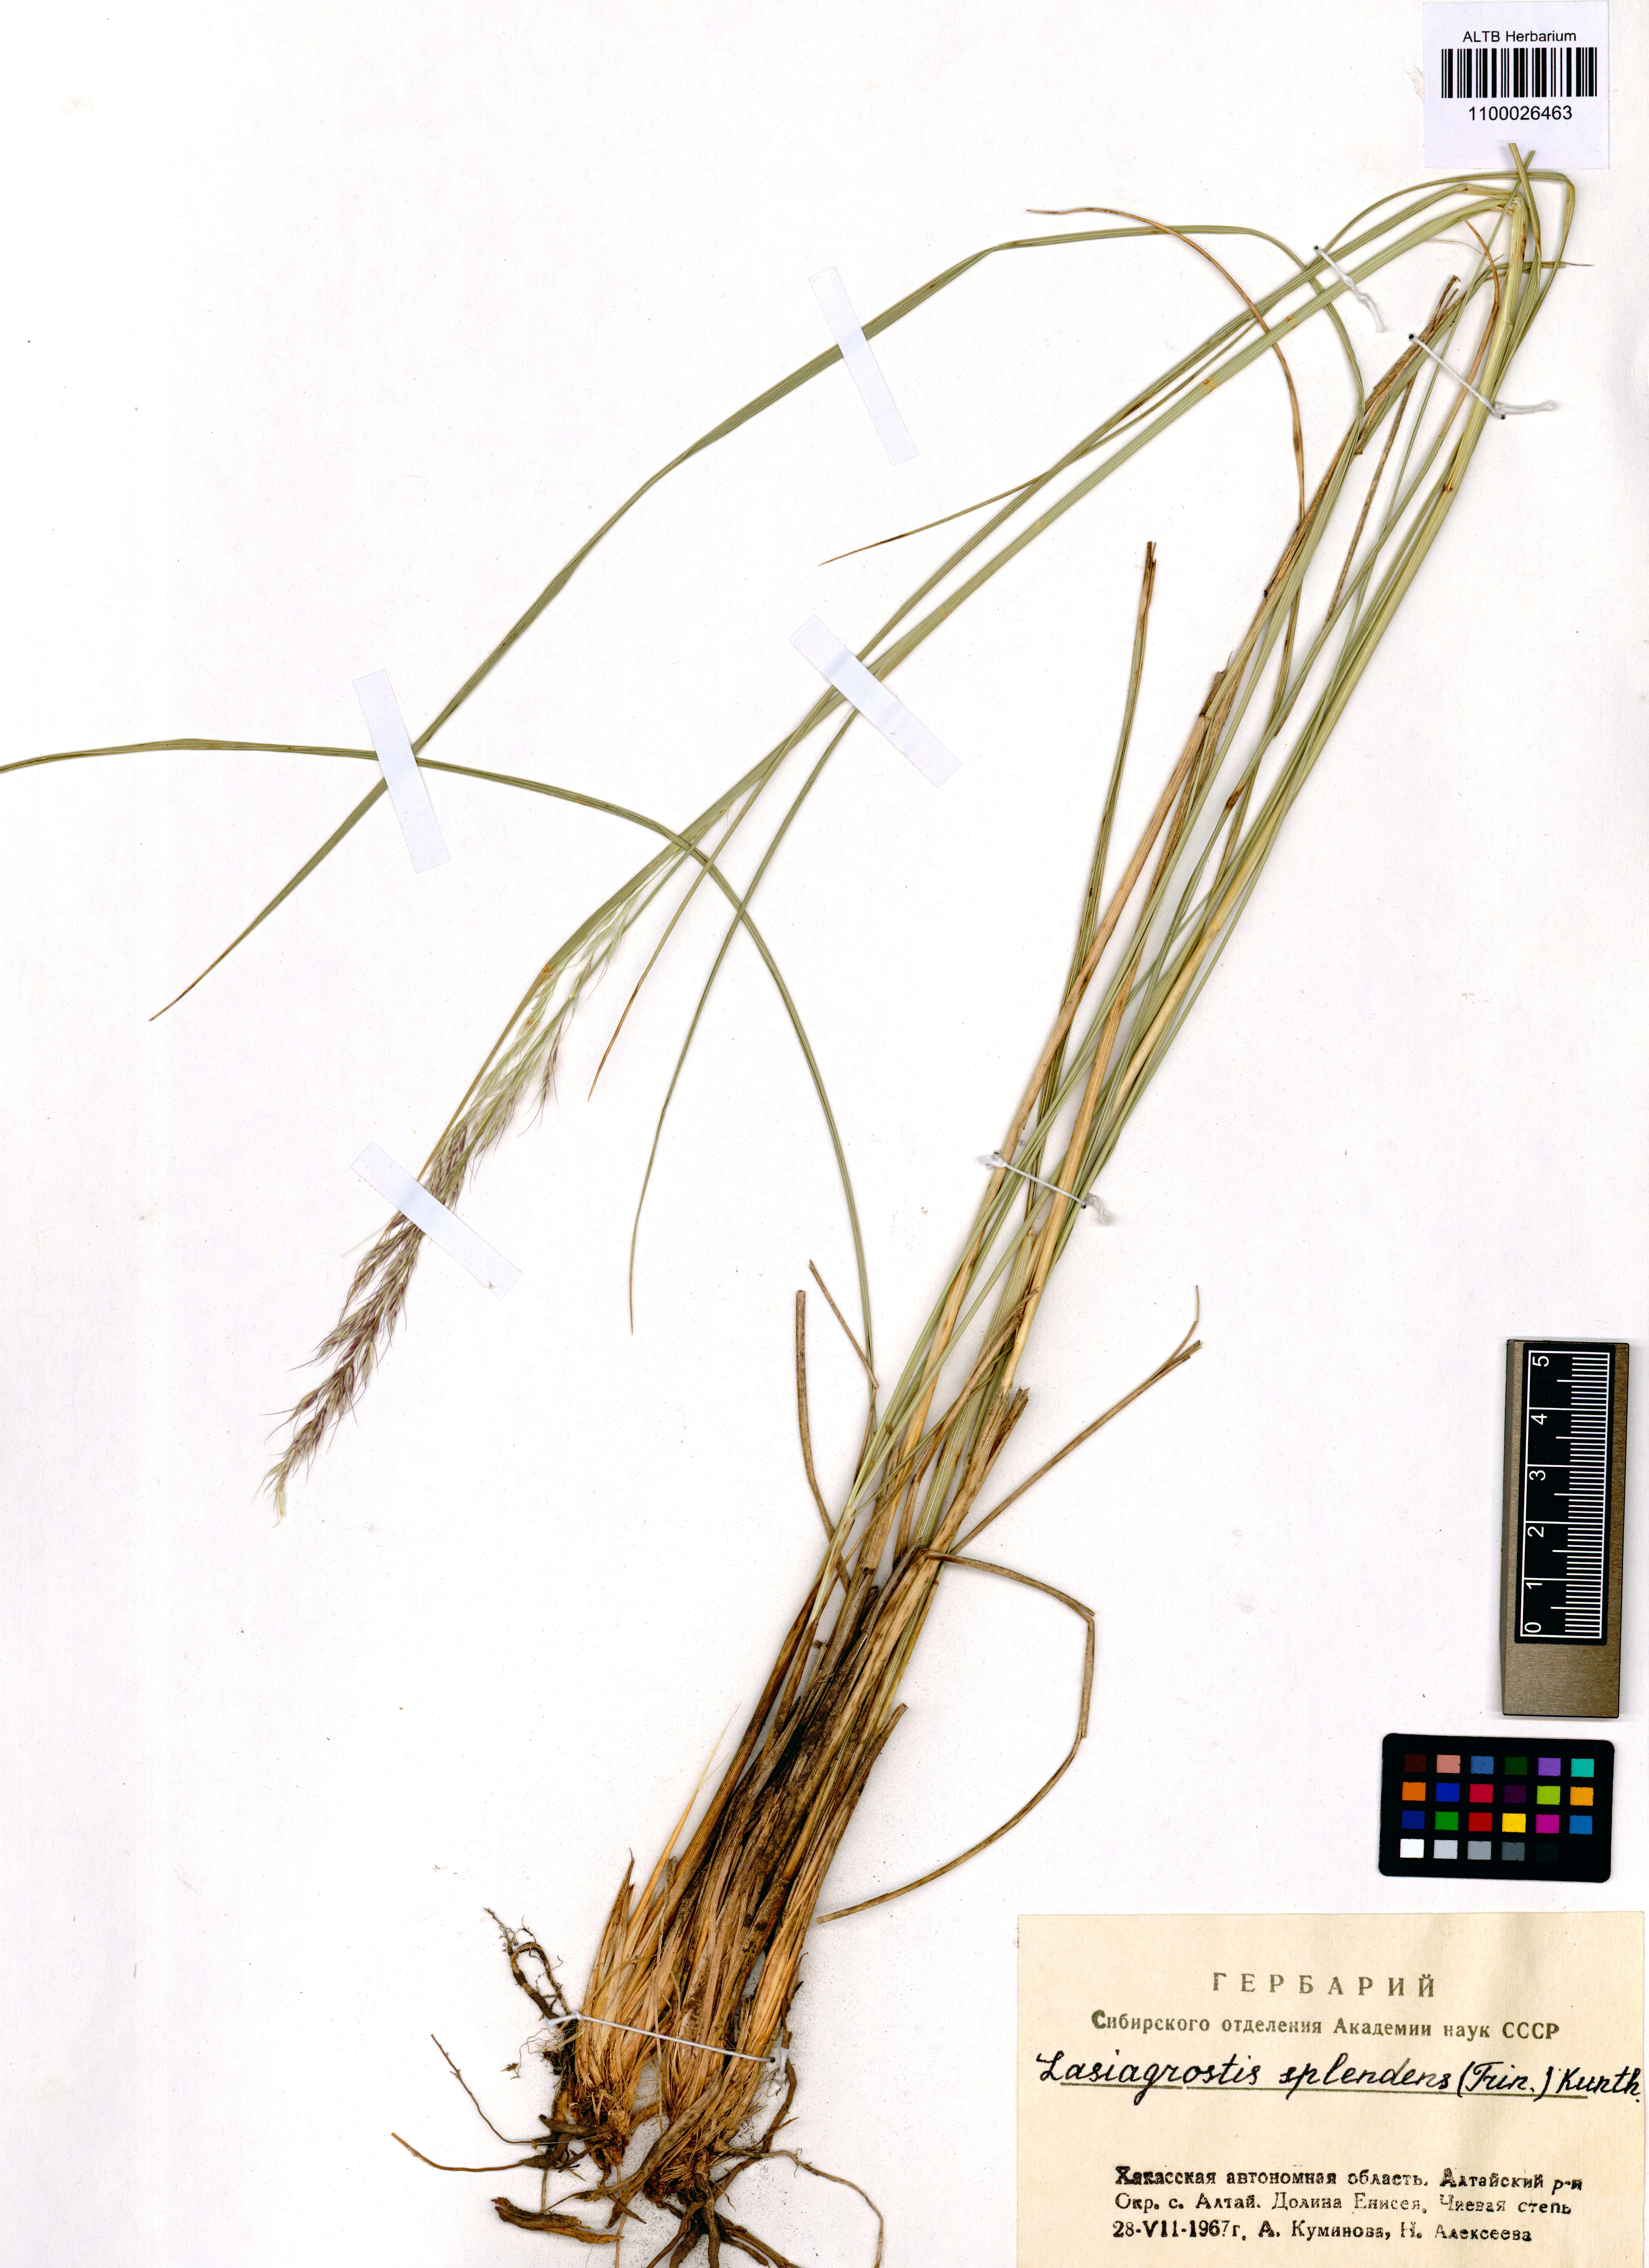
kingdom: Plantae
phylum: Tracheophyta
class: Liliopsida
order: Poales
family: Poaceae
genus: Neotrinia
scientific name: Neotrinia splendens
